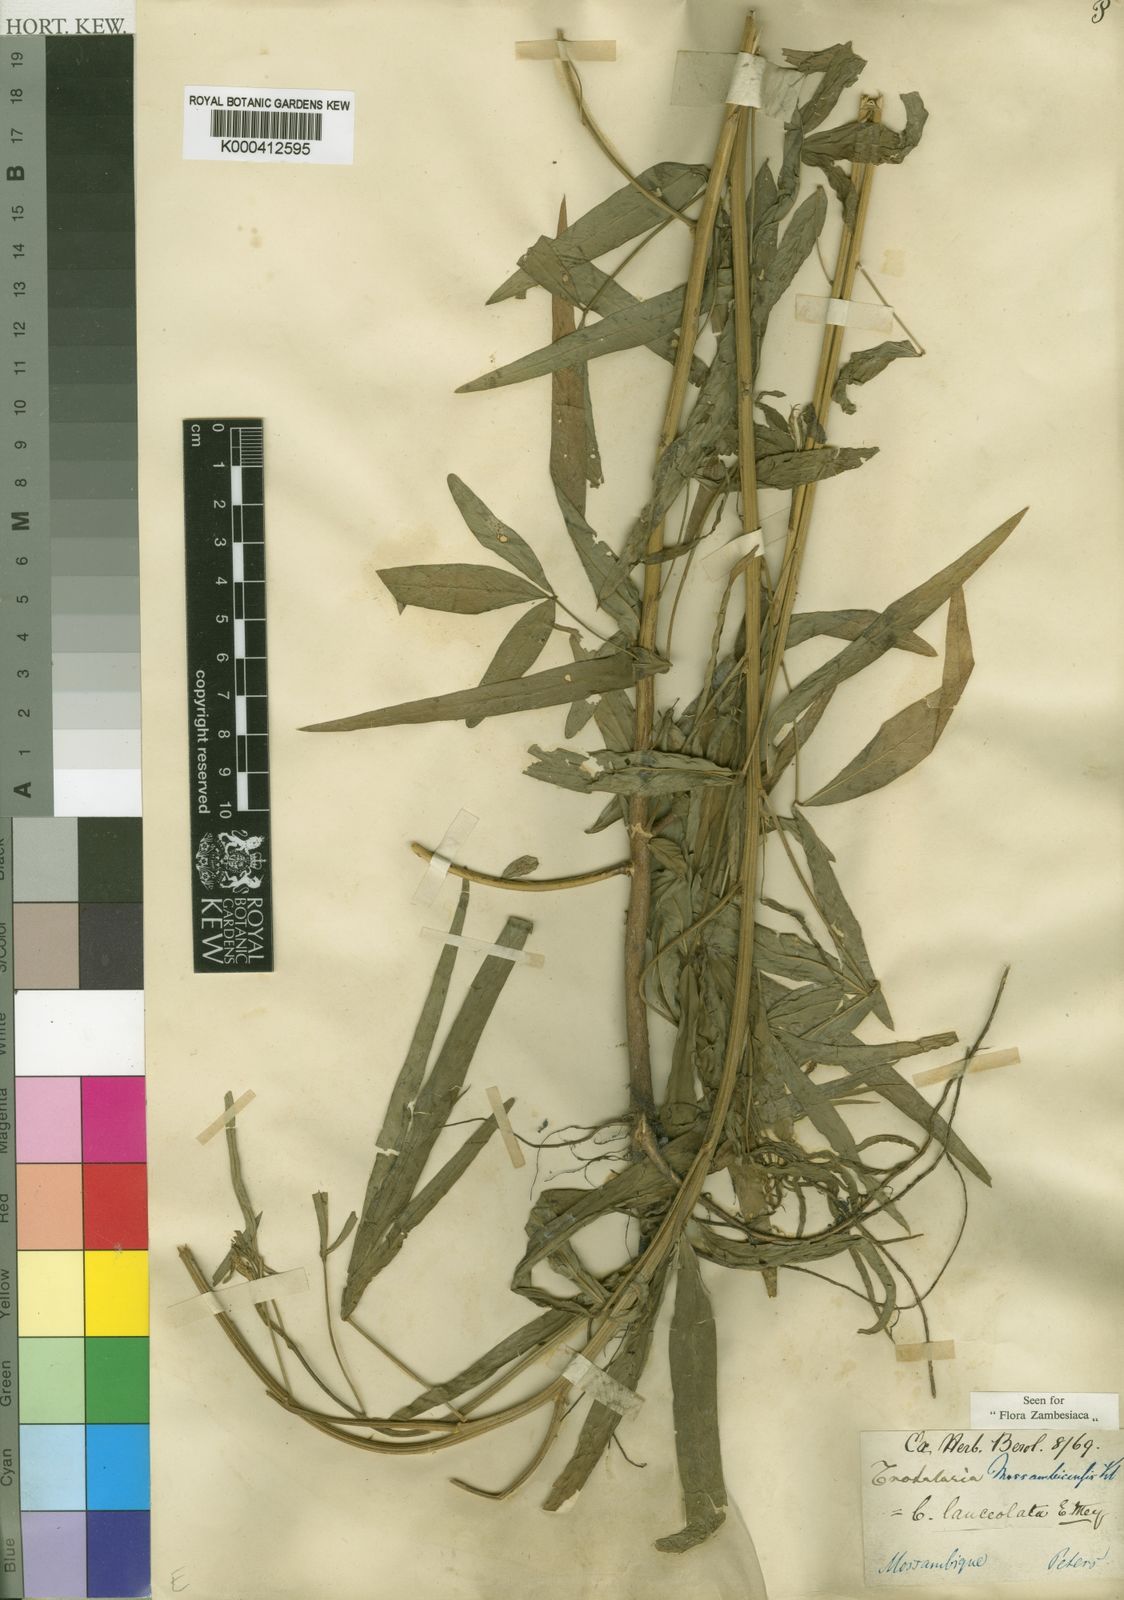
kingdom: Plantae
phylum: Tracheophyta
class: Magnoliopsida
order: Fabales
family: Fabaceae
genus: Crotalaria
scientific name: Crotalaria lanceolata
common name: Lanceleaf rattlebox
